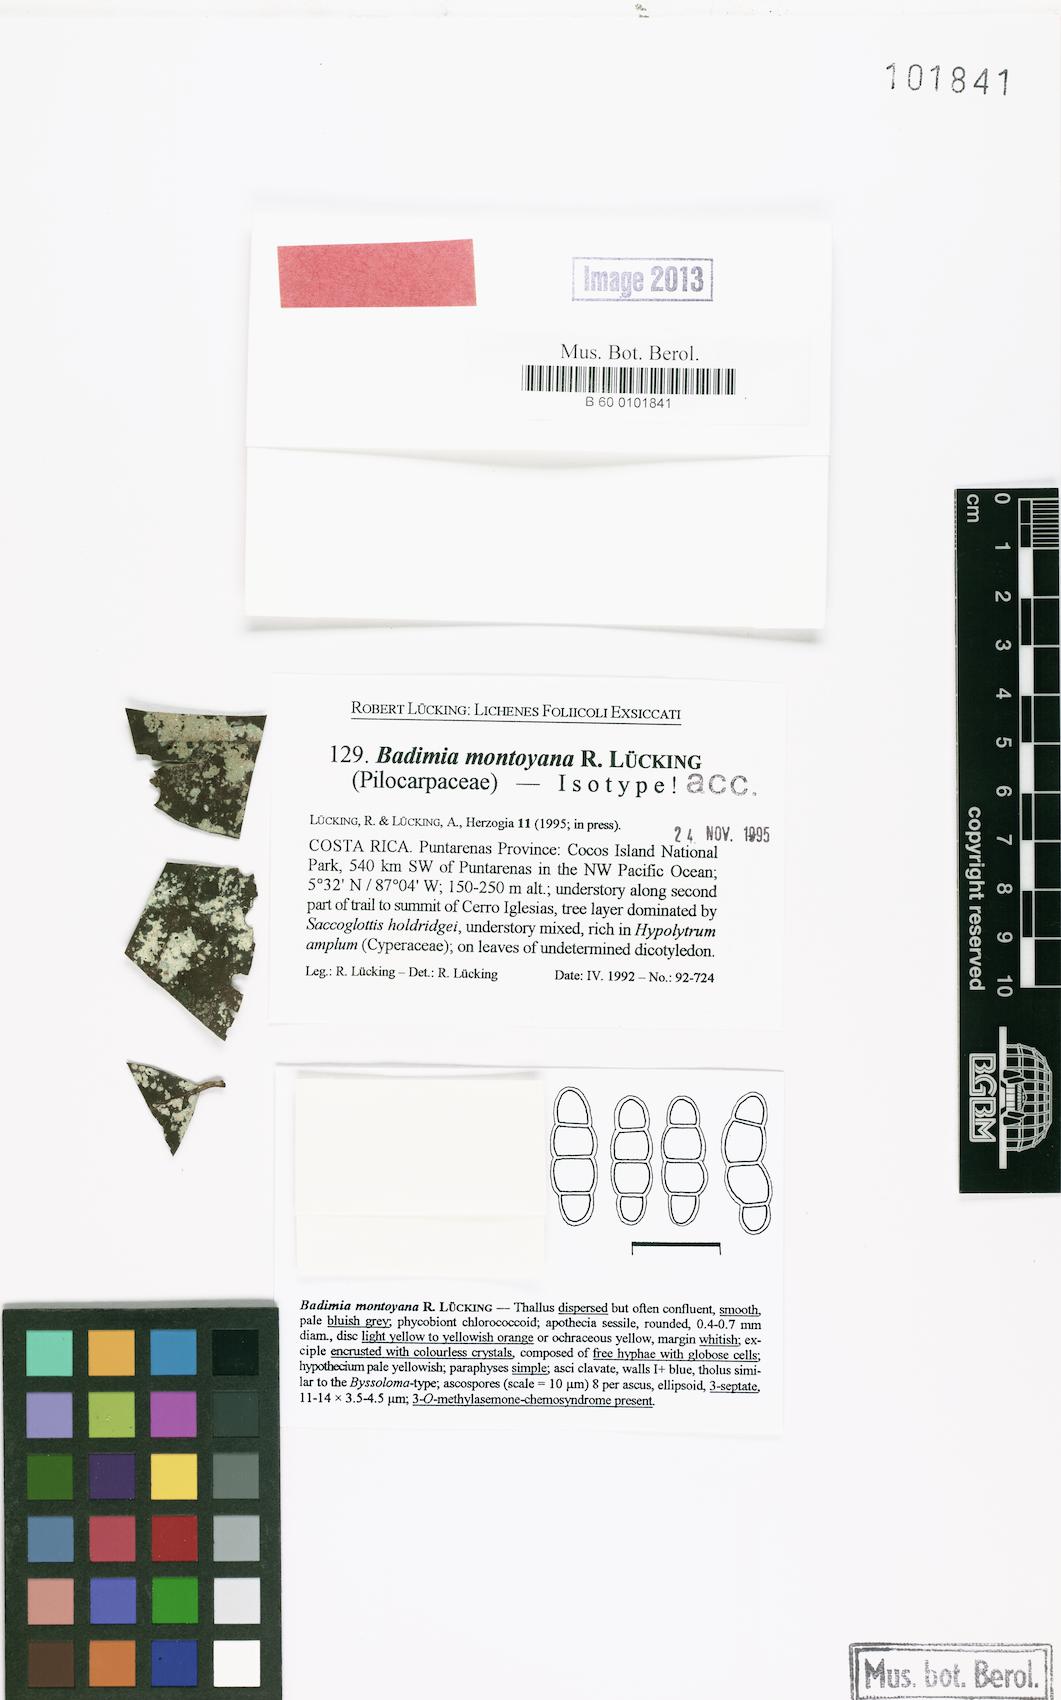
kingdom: Fungi
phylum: Ascomycota
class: Lecanoromycetes
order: Lecanorales
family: Ramalinaceae
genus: Badimia
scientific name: Badimia montoyana
